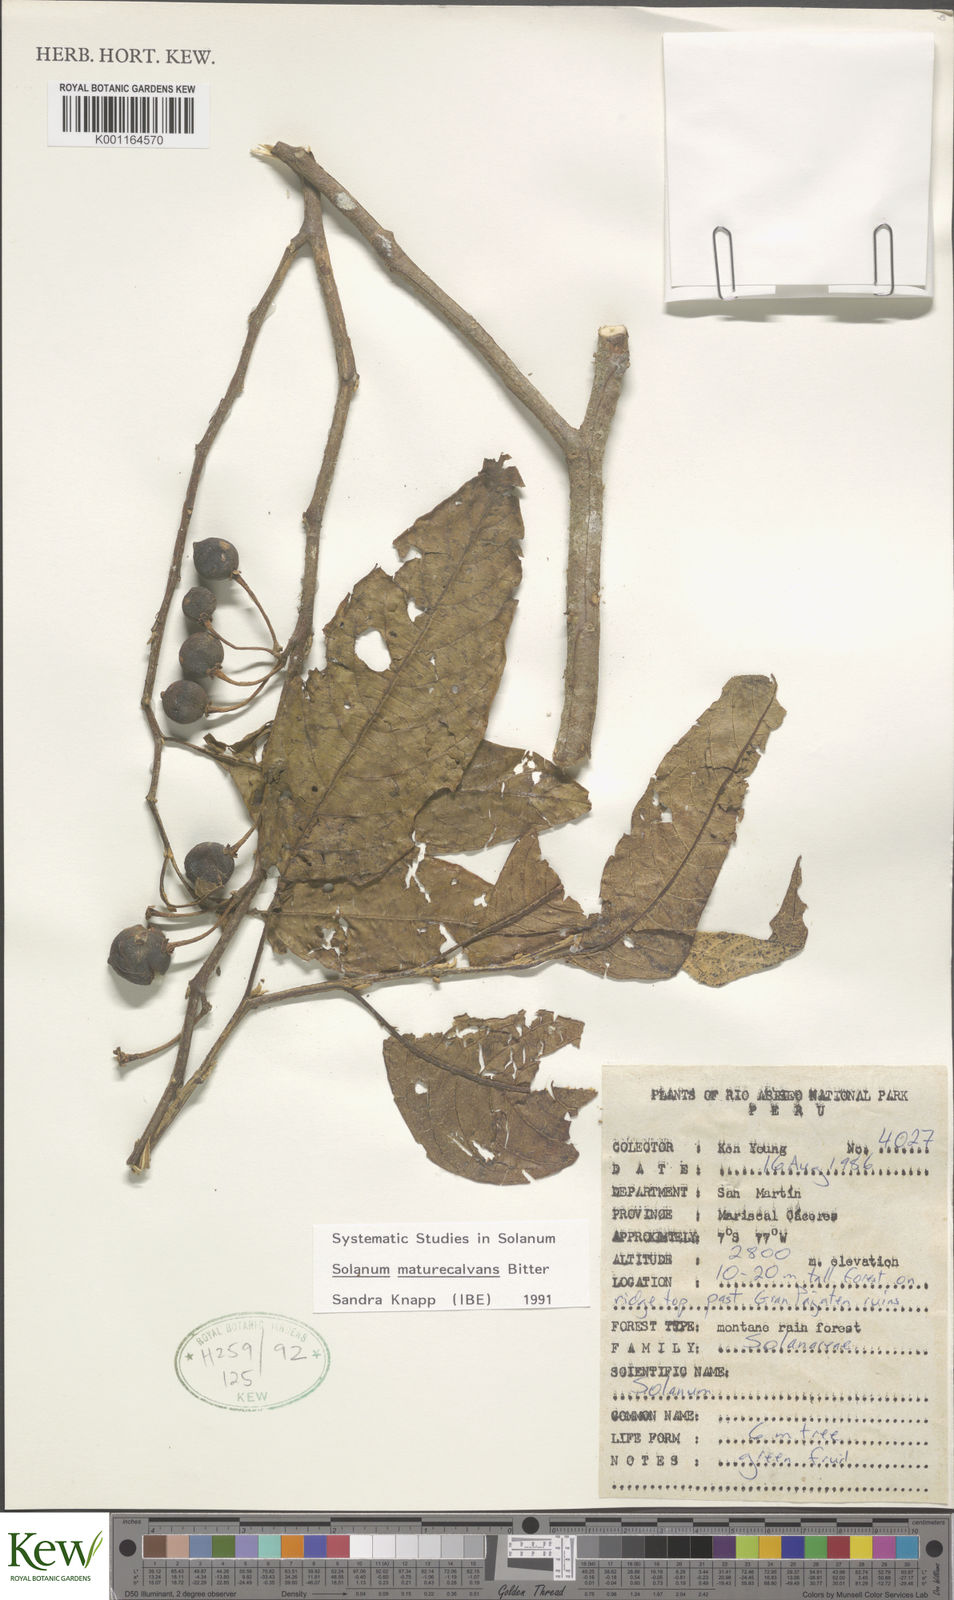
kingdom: Plantae
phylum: Tracheophyta
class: Magnoliopsida
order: Solanales
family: Solanaceae
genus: Solanum
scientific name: Solanum maturecalvans
